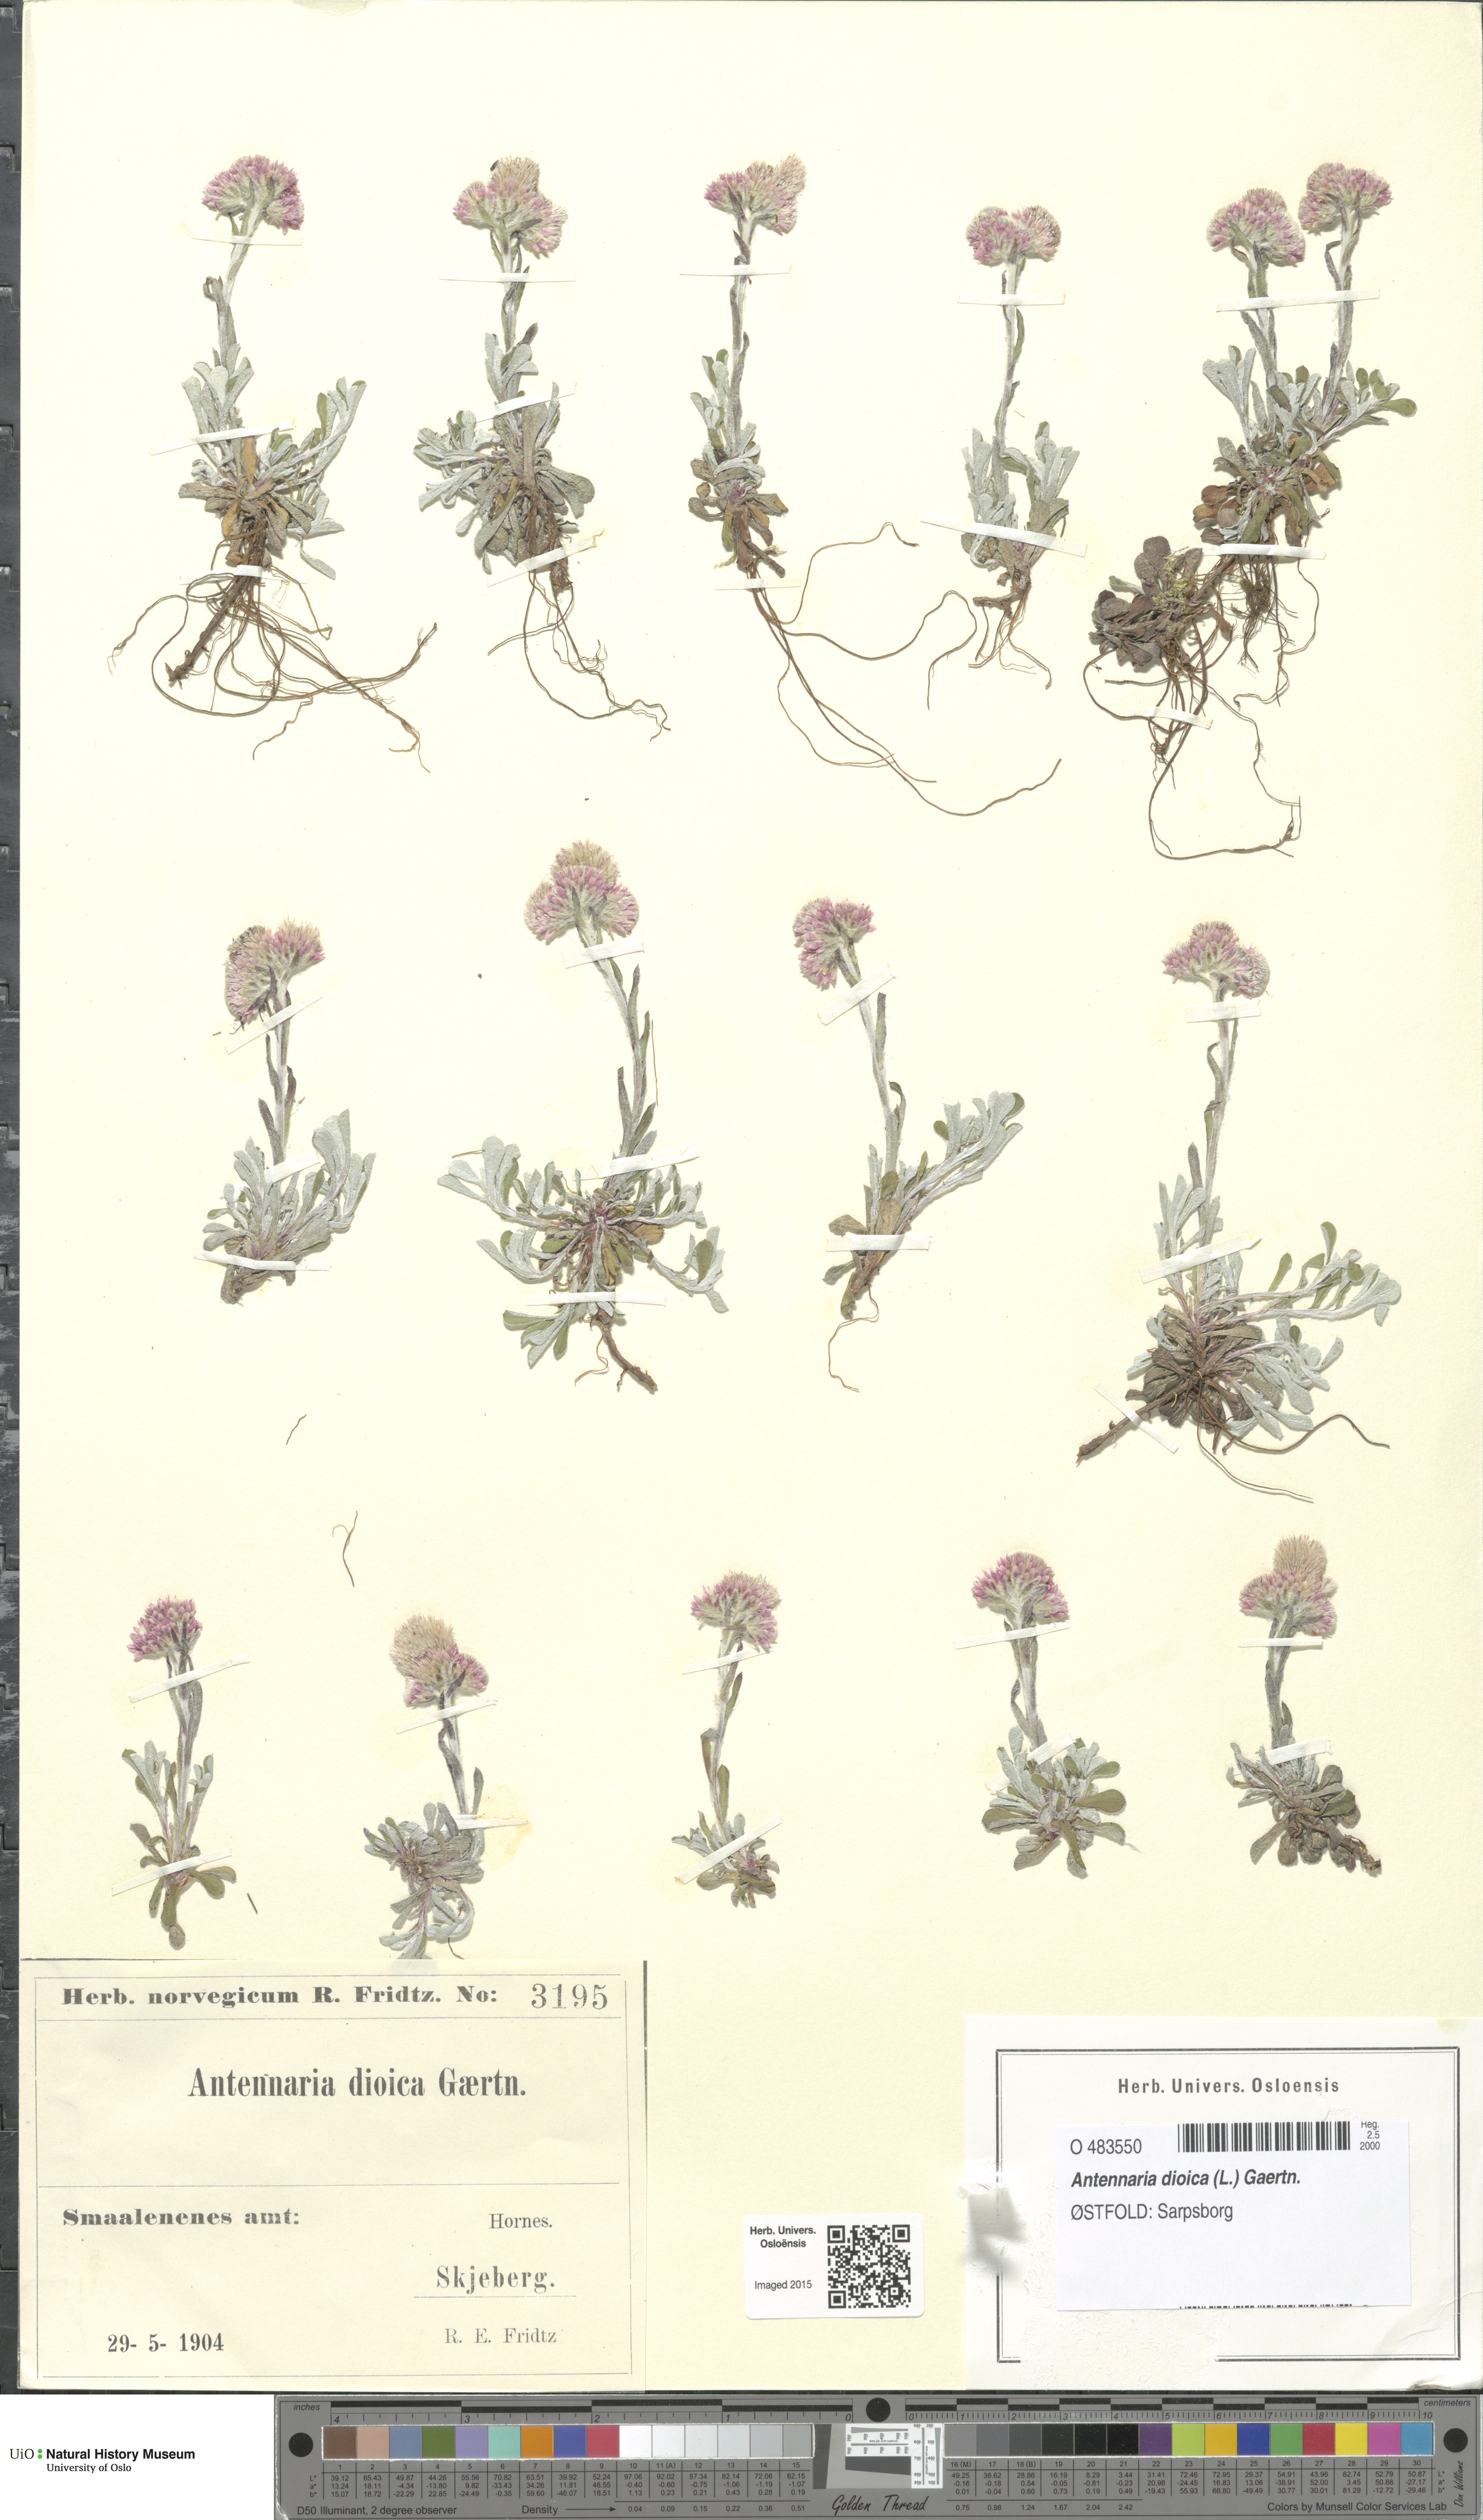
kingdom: Plantae
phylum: Tracheophyta
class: Magnoliopsida
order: Asterales
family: Asteraceae
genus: Antennaria
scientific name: Antennaria dioica
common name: Mountain everlasting
